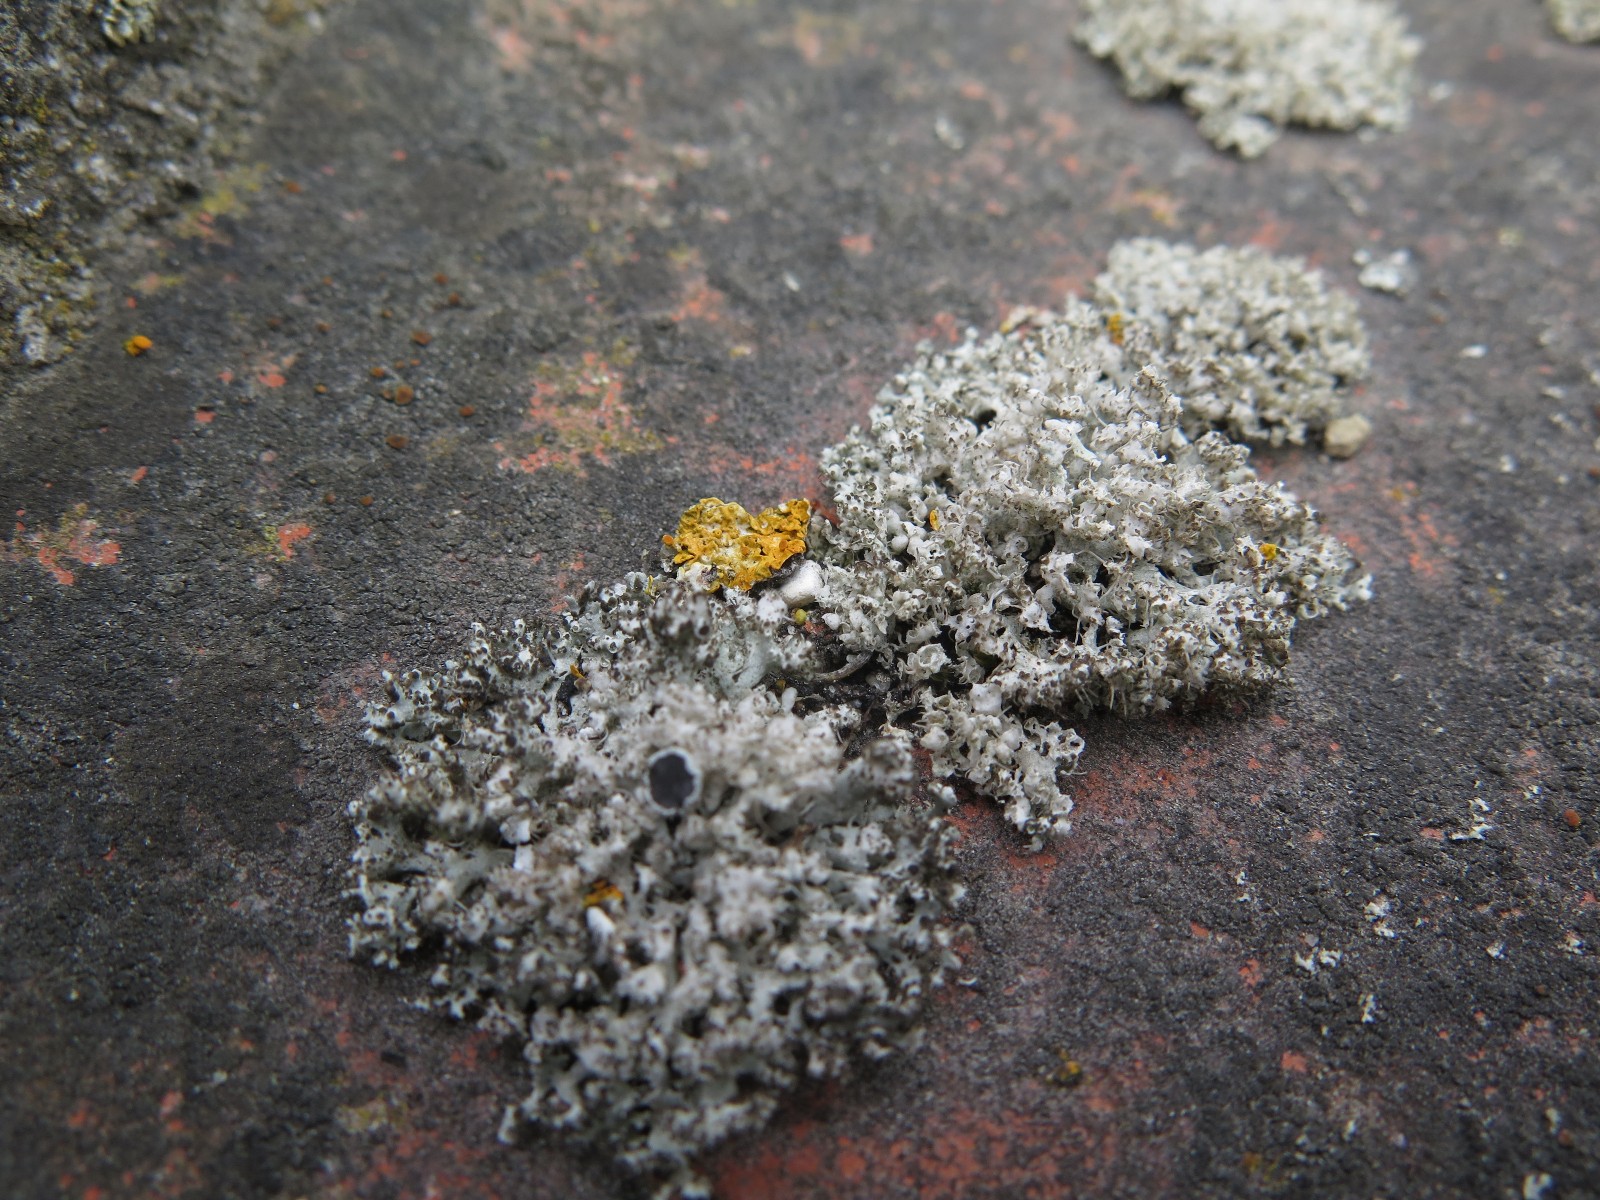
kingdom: Fungi
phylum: Ascomycota
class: Lecanoromycetes
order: Caliciales
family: Physciaceae
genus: Physcia
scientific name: Physcia adscendens
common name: hætte-rosetlav
